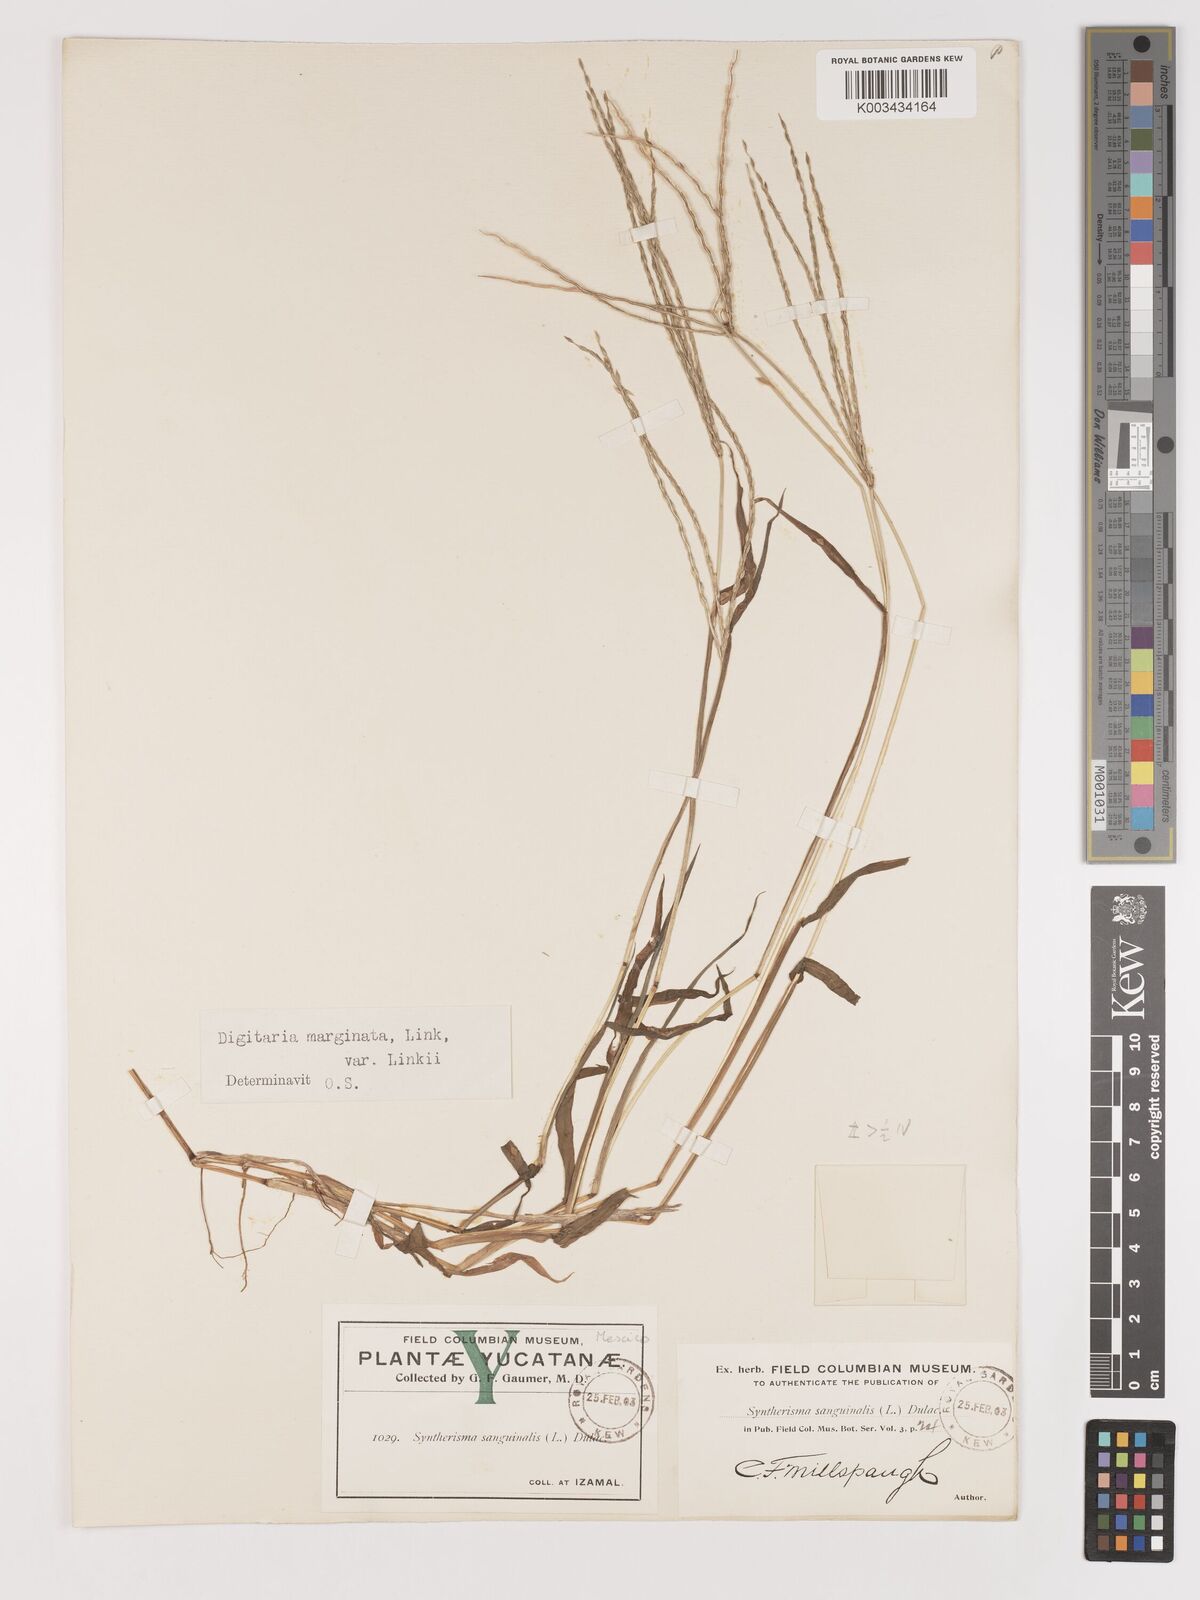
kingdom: Plantae
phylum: Tracheophyta
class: Liliopsida
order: Poales
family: Poaceae
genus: Digitaria
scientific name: Digitaria ciliaris
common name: Tropical finger-grass
